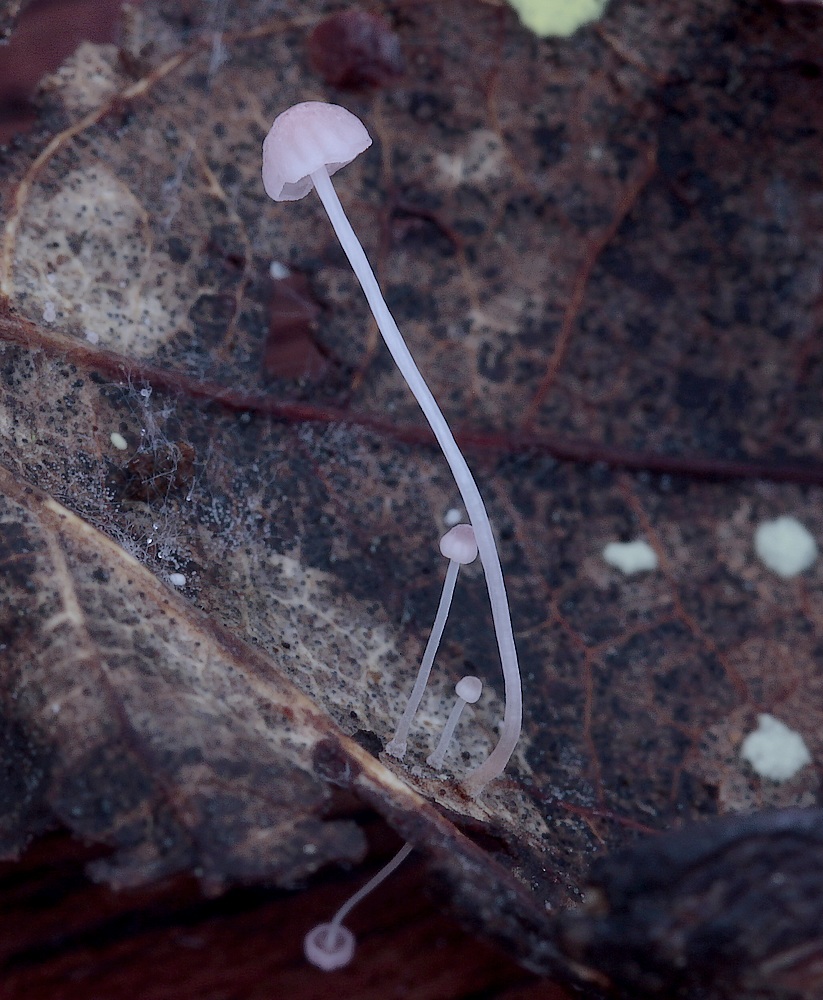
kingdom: Fungi
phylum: Basidiomycota
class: Agaricomycetes
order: Agaricales
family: Mycenaceae
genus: Mycena
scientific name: Mycena smithiana
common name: blegrød huesvamp
